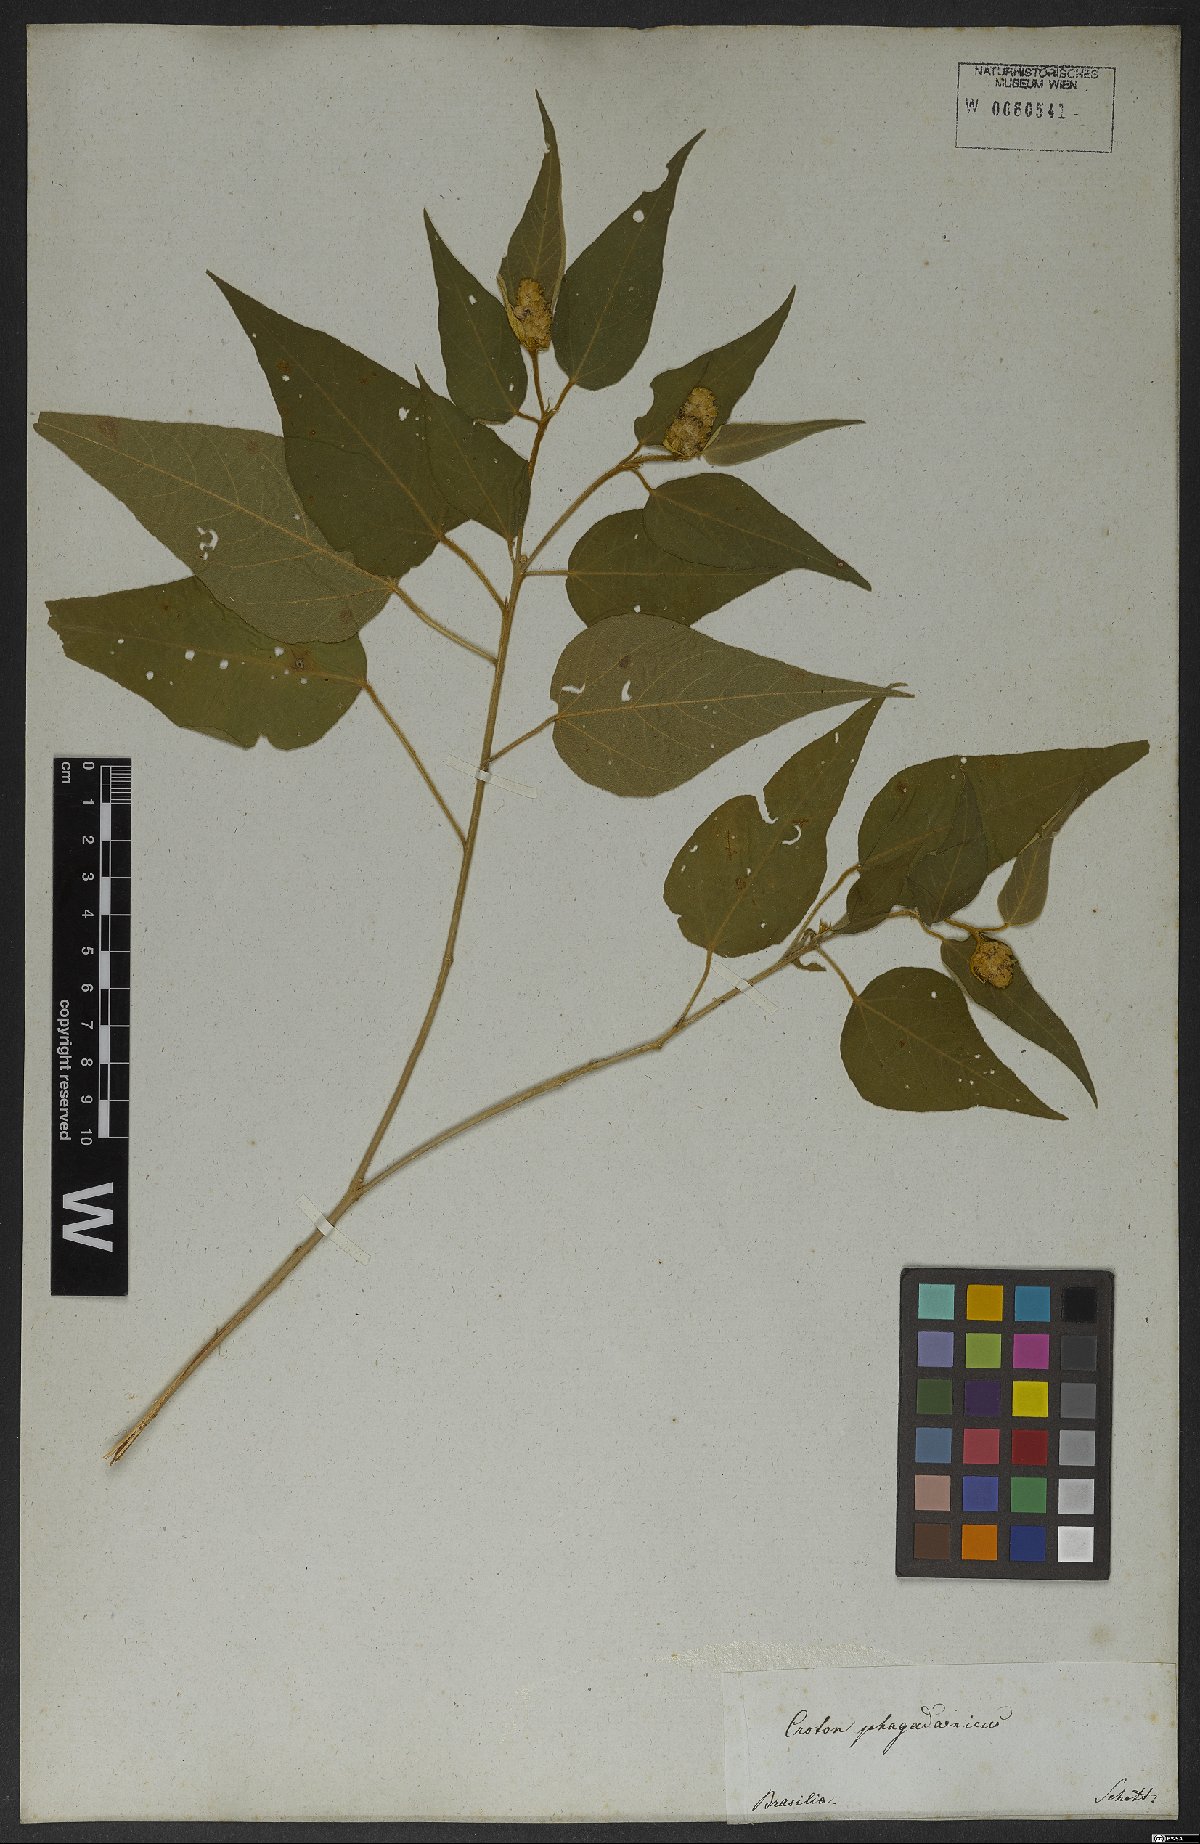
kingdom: Plantae
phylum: Tracheophyta
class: Magnoliopsida
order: Malpighiales
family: Euphorbiaceae
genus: Croton
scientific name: Croton triqueter
